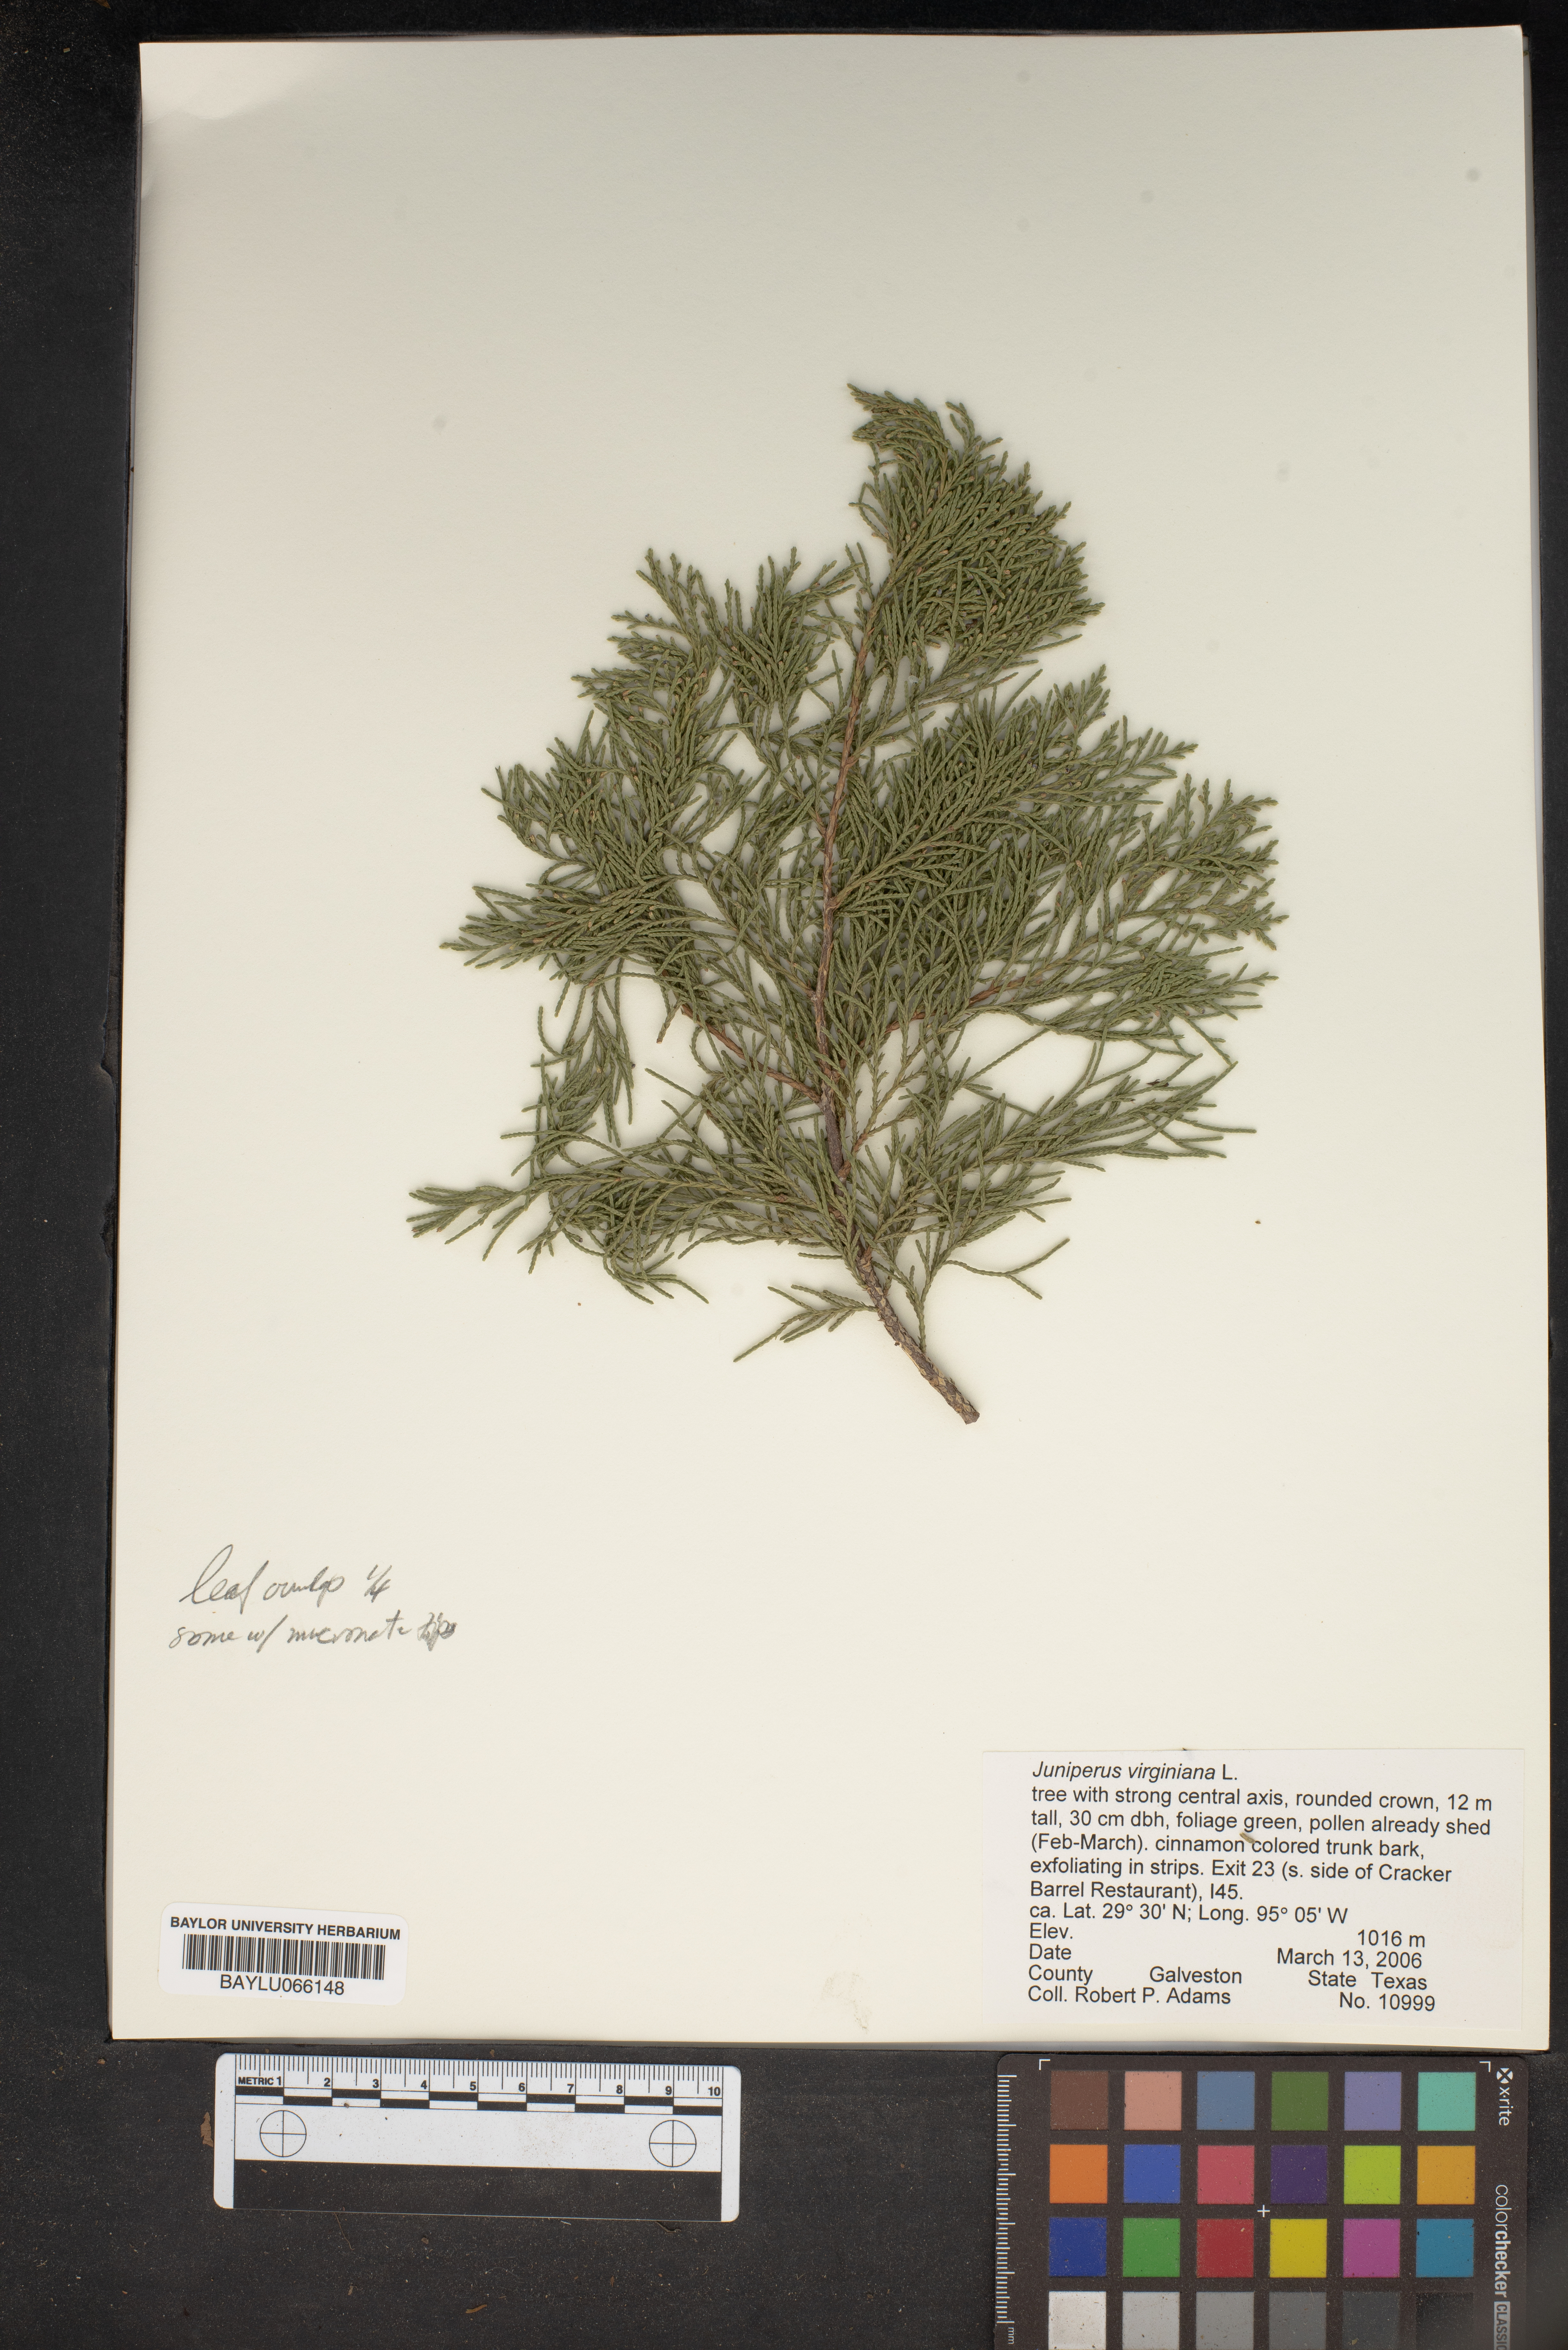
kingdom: Plantae
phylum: Tracheophyta
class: Pinopsida
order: Pinales
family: Cupressaceae
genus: Juniperus
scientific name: Juniperus virginiana
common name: Red juniper
